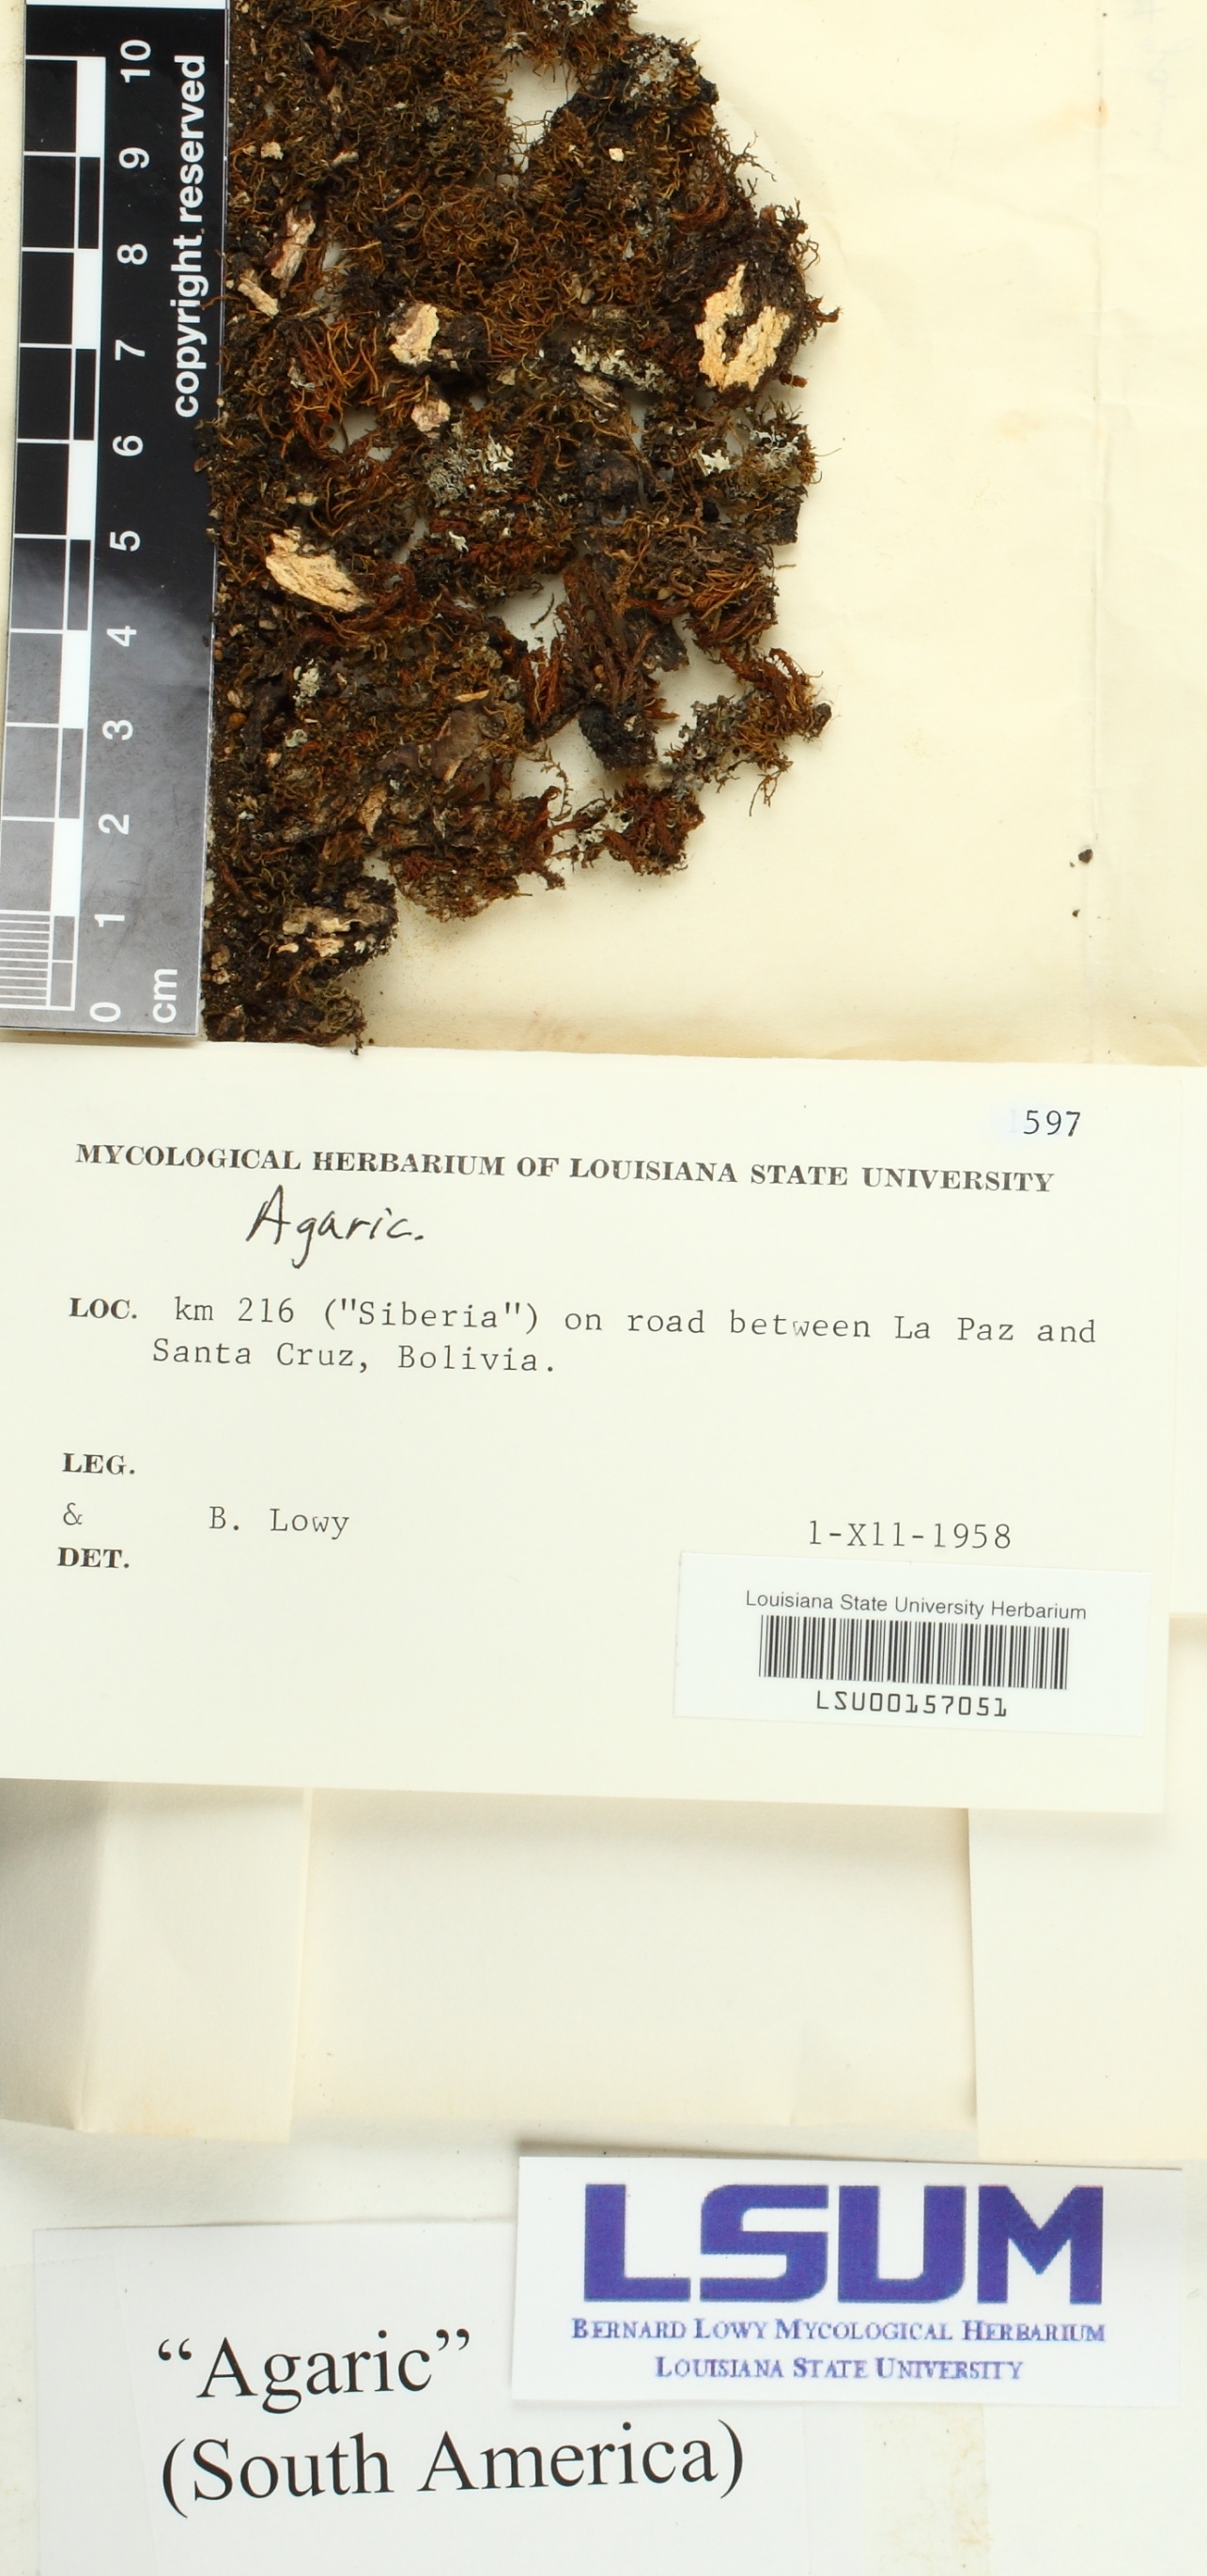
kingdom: Fungi
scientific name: Fungi
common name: Fungi
